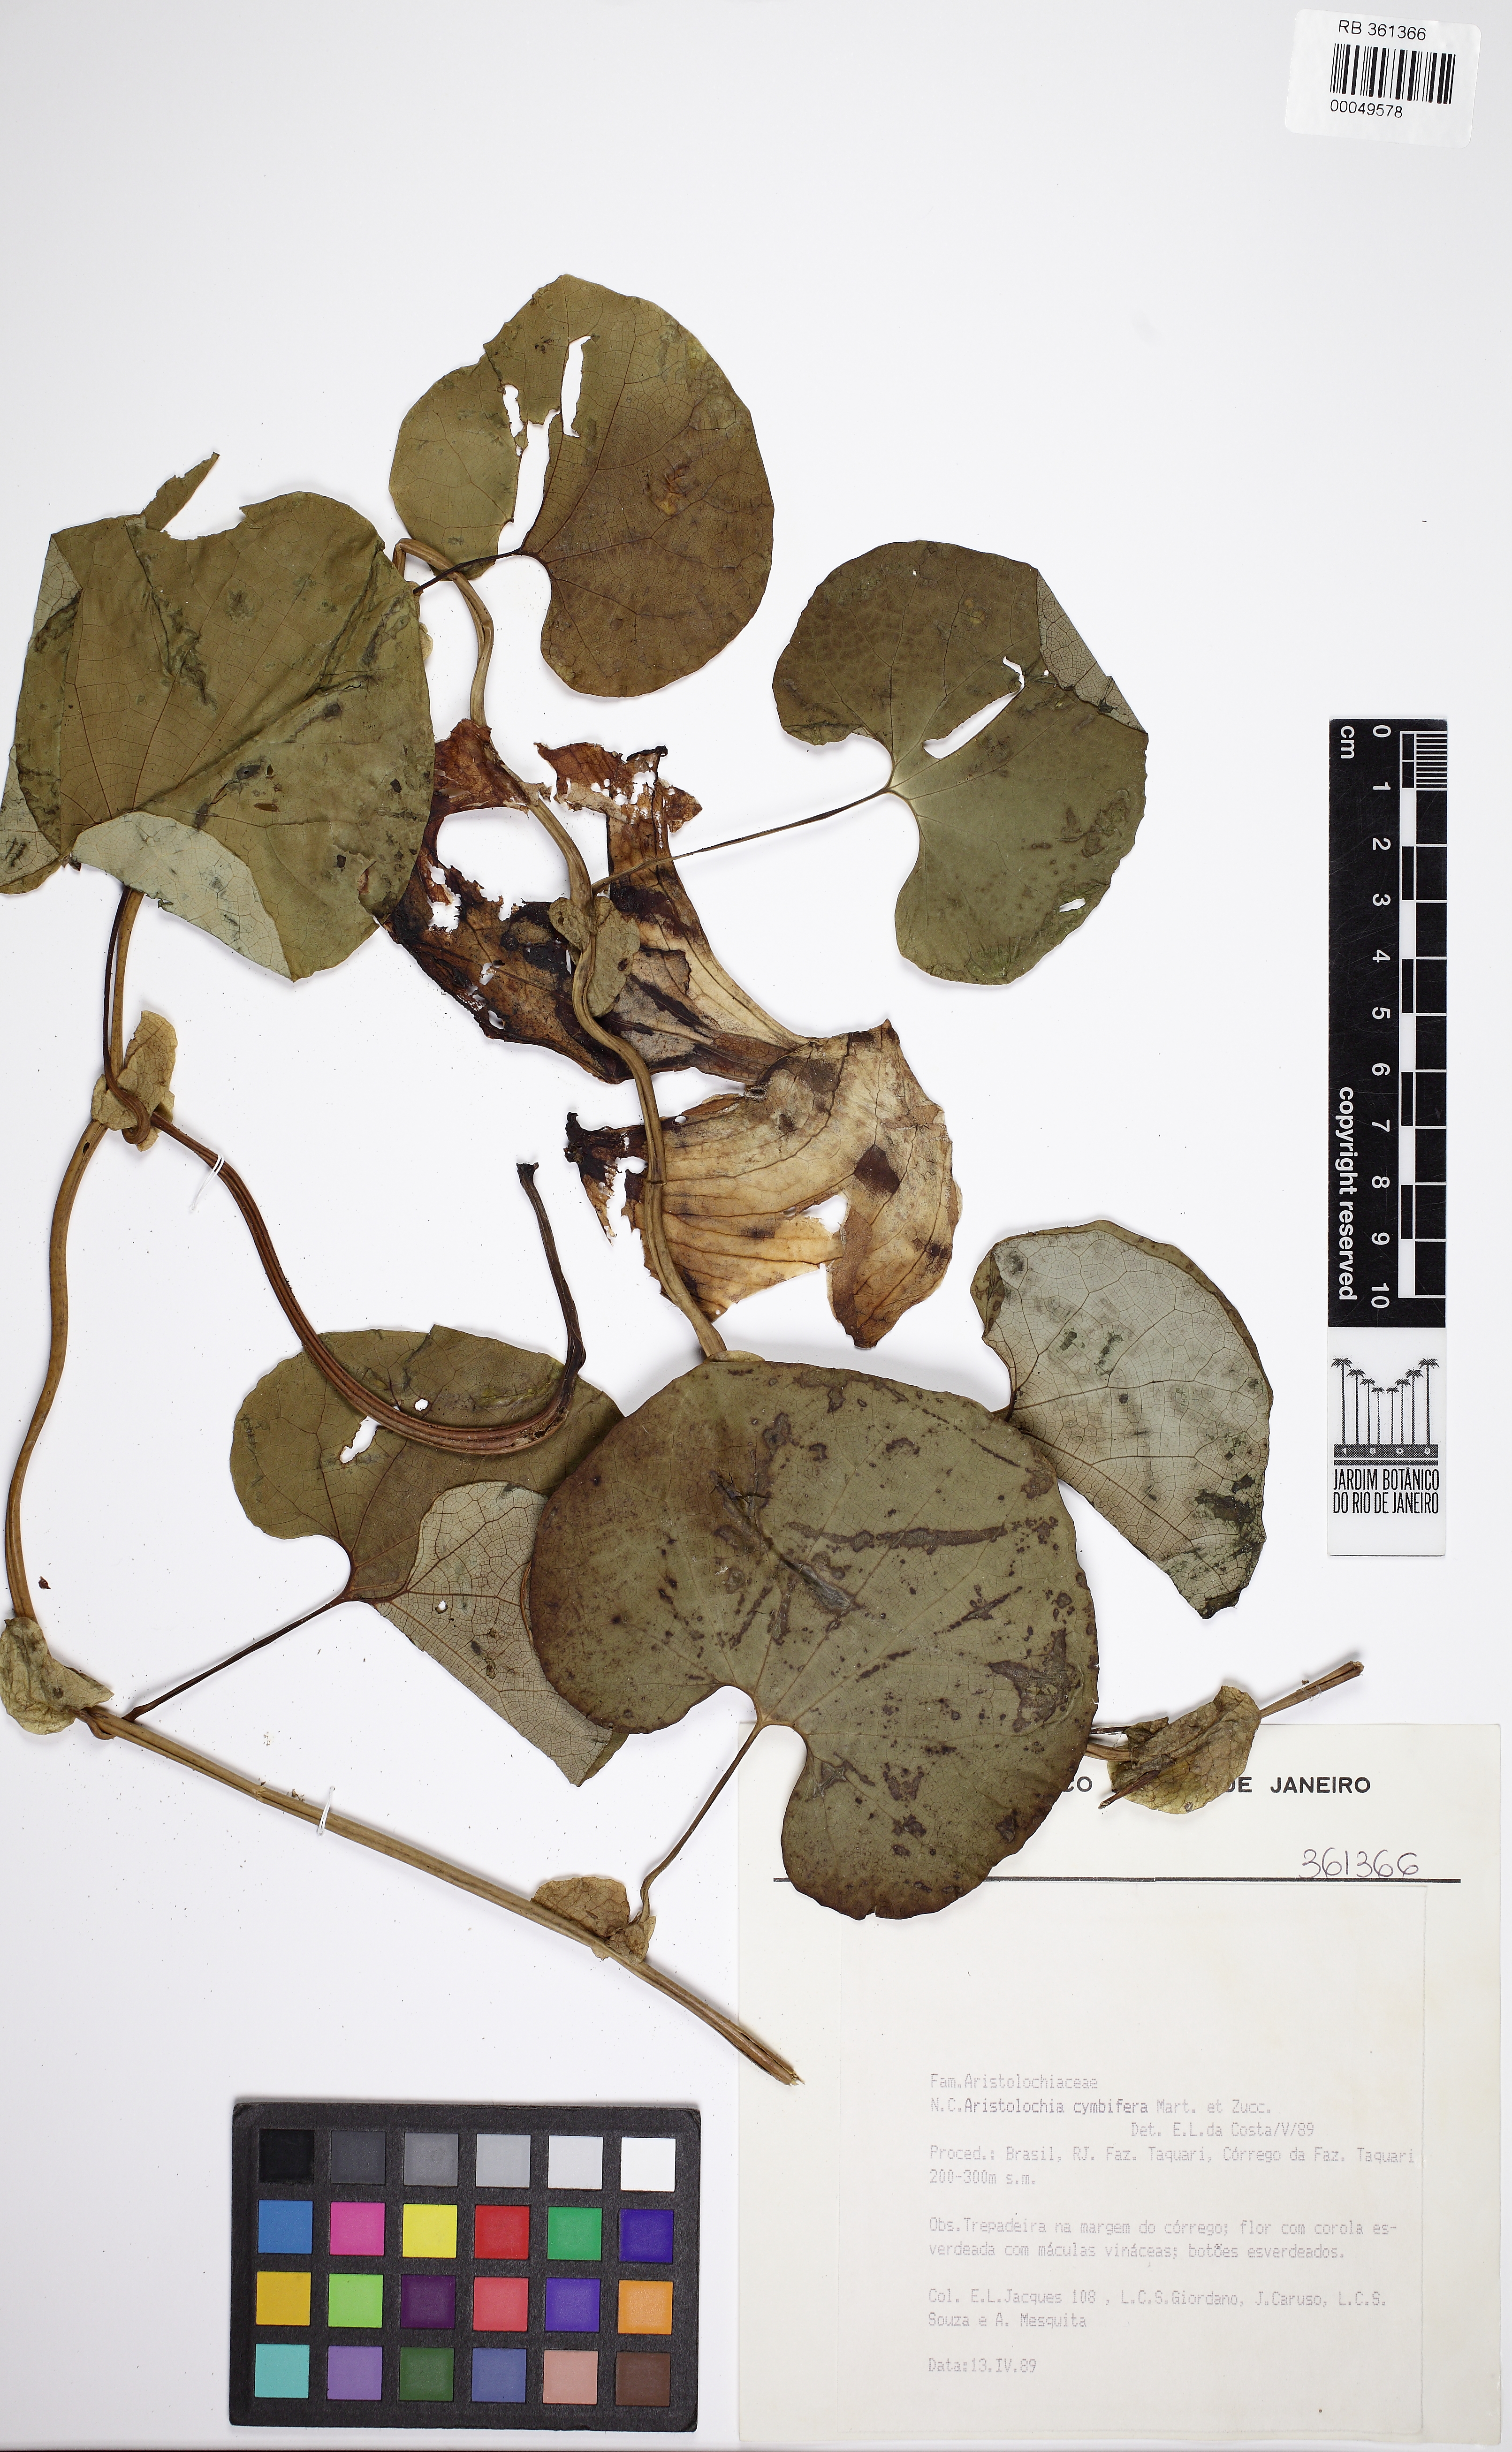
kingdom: Plantae
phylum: Tracheophyta
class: Magnoliopsida
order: Piperales
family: Aristolochiaceae
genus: Aristolochia
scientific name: Aristolochia cymbifera
